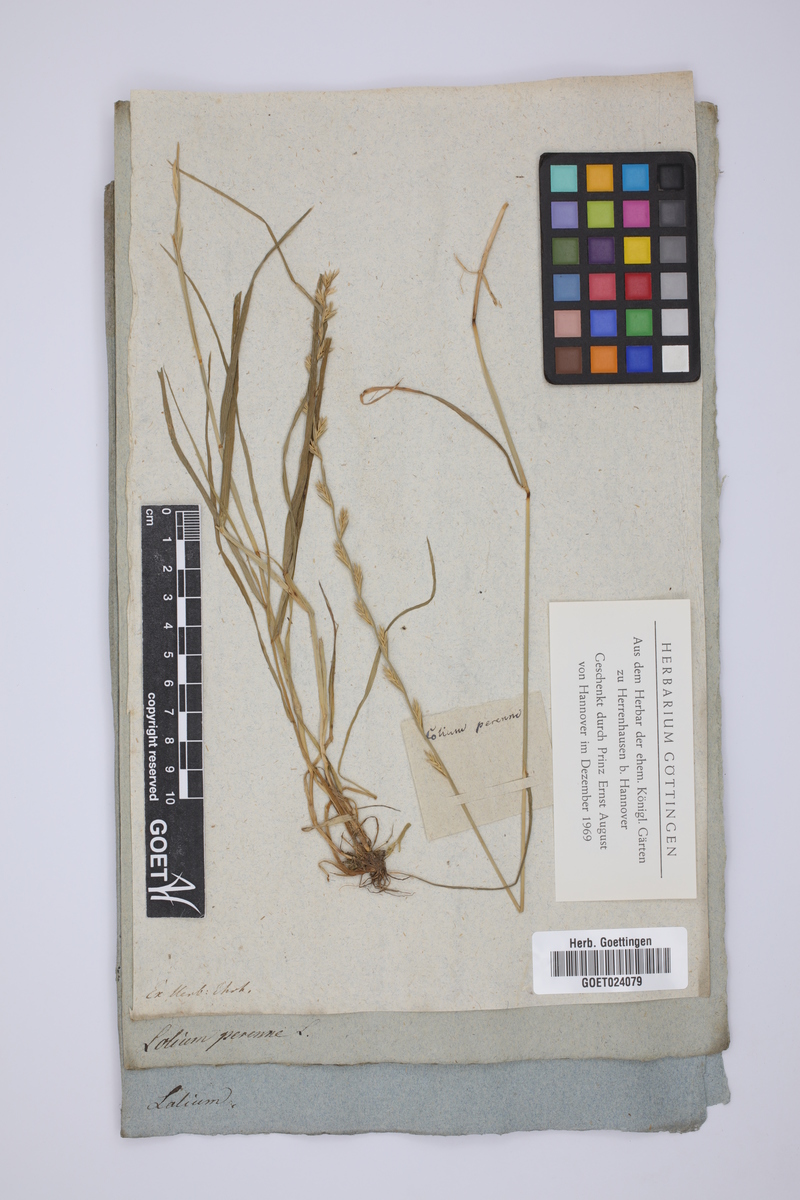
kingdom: Plantae
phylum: Tracheophyta
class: Liliopsida
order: Poales
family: Poaceae
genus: Lolium
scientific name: Lolium perenne
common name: Perennial ryegrass
